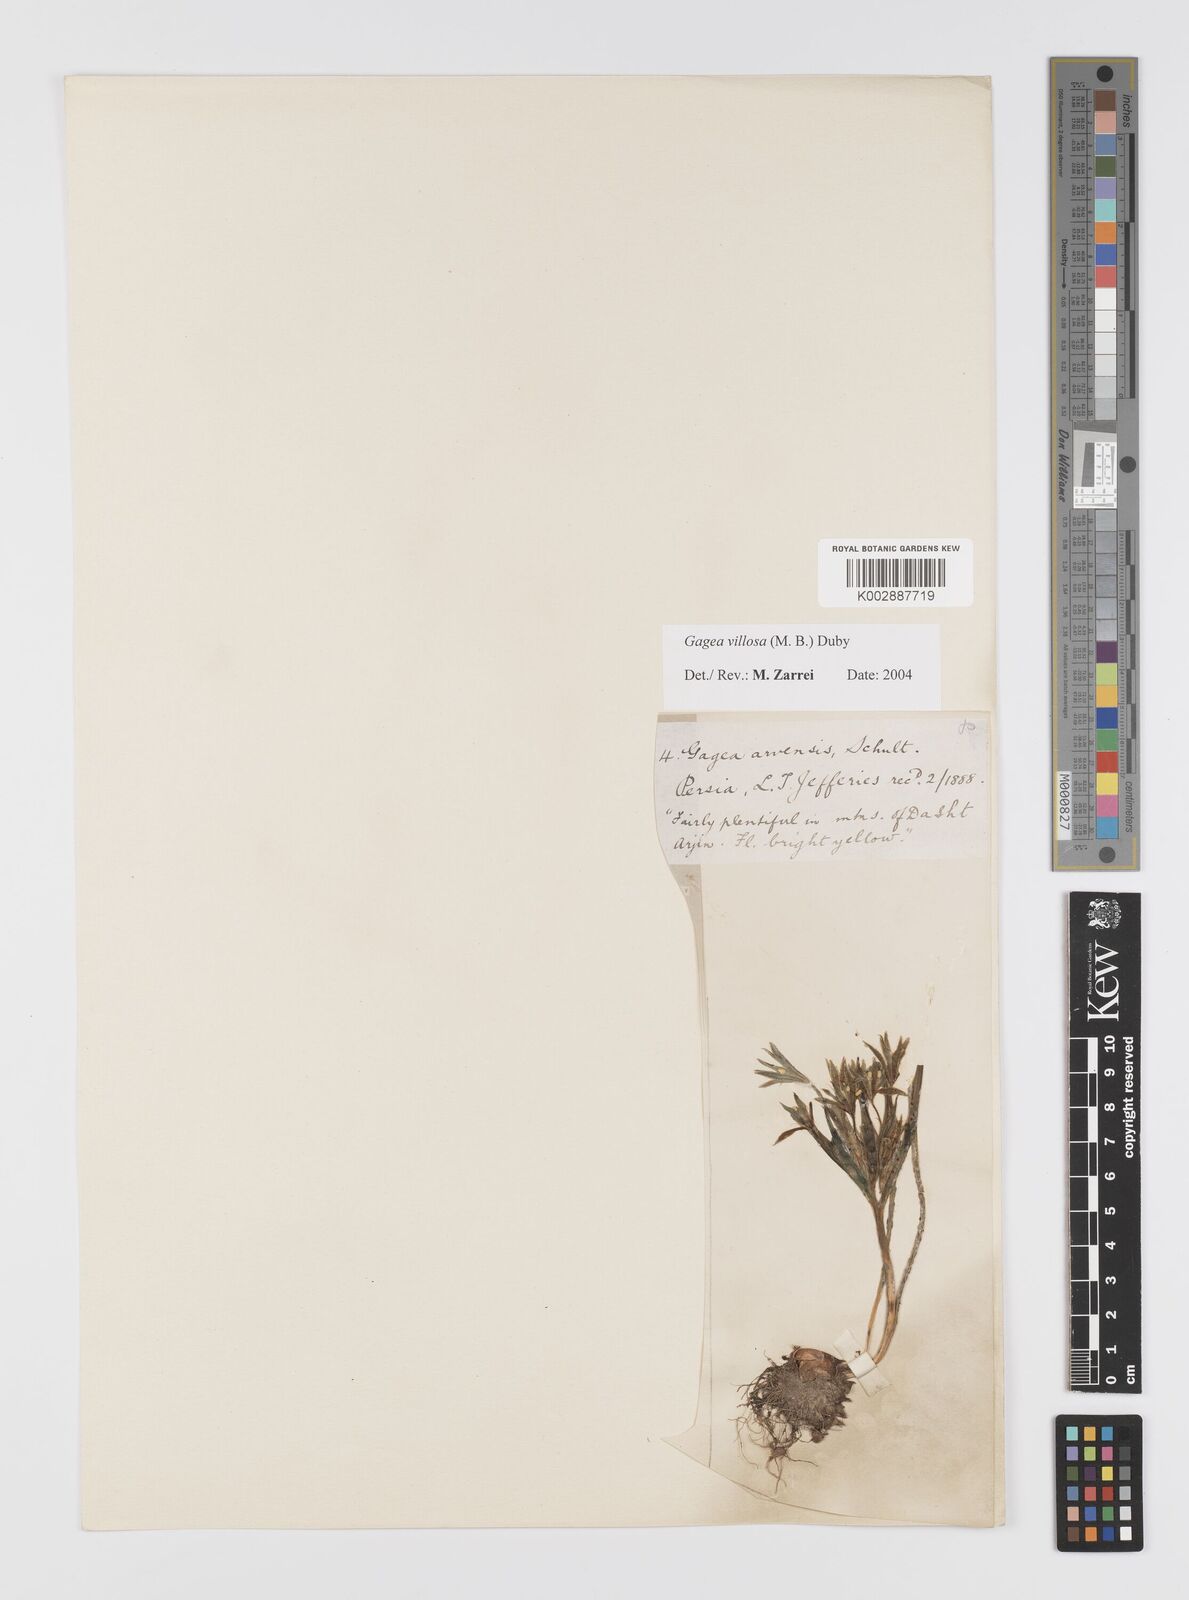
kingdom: Plantae
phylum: Tracheophyta
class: Liliopsida
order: Liliales
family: Liliaceae
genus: Gagea
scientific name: Gagea minima
